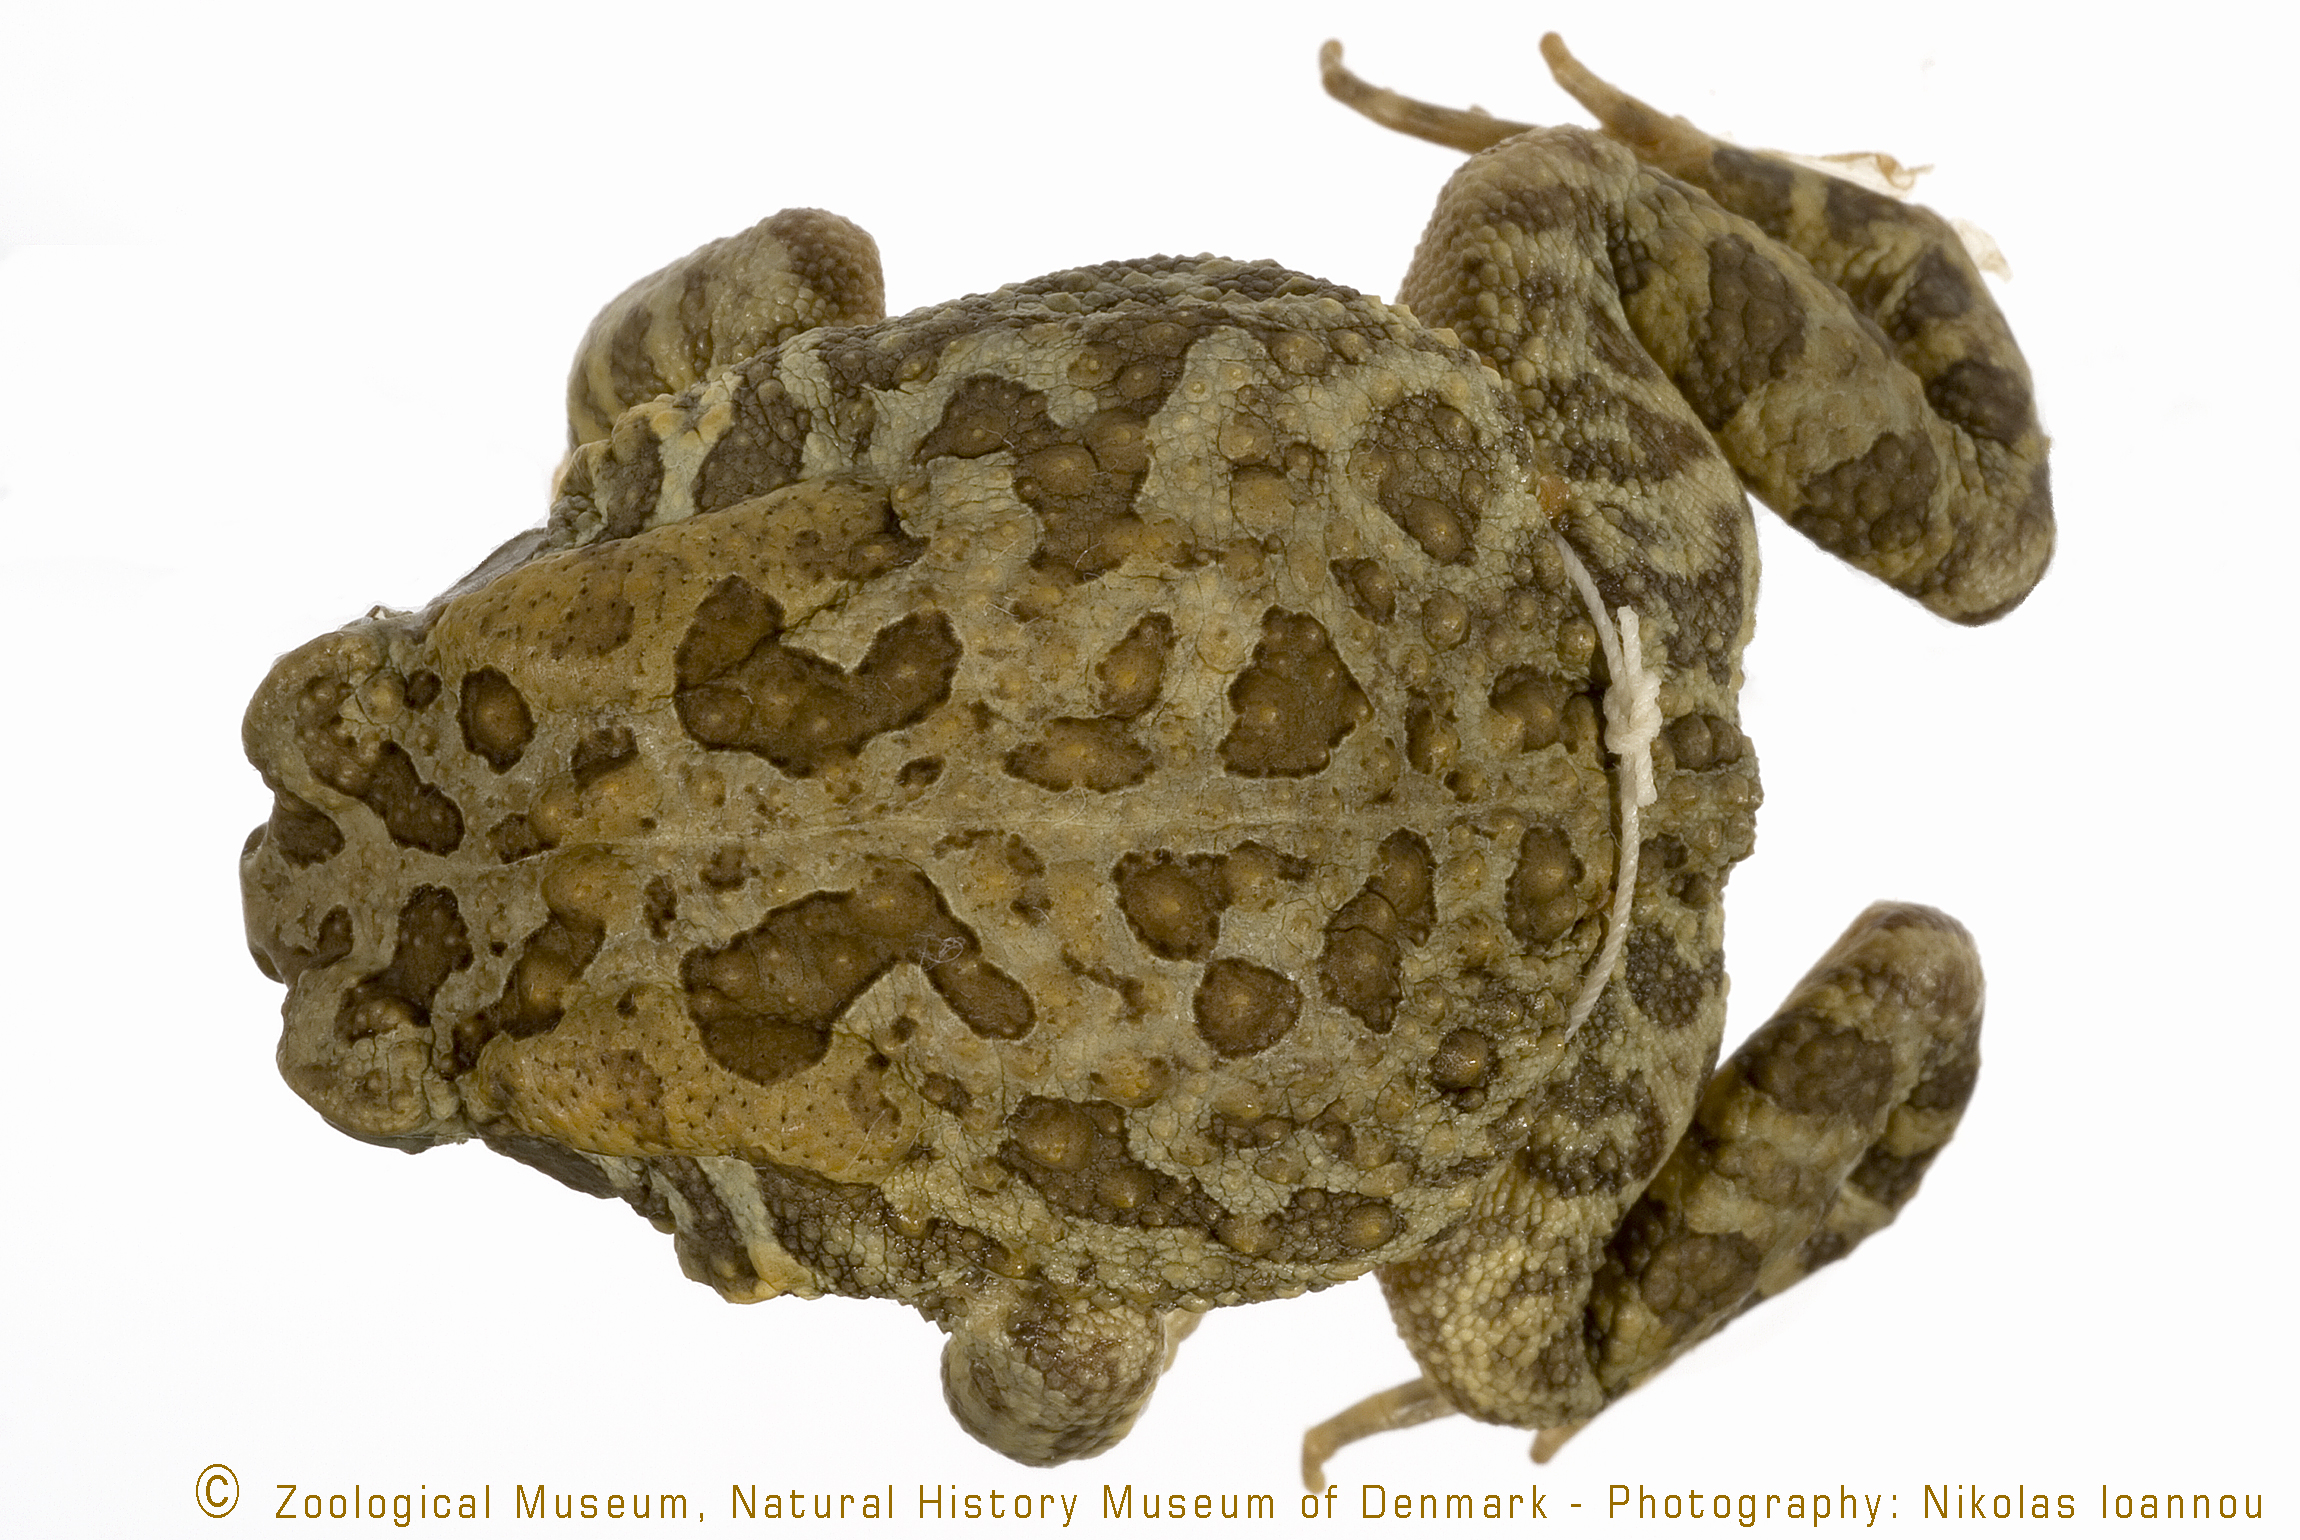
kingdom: Animalia
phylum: Chordata
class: Amphibia
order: Anura
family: Bufonidae
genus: Sclerophrys
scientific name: Sclerophrys gutturalis
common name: African common toad
